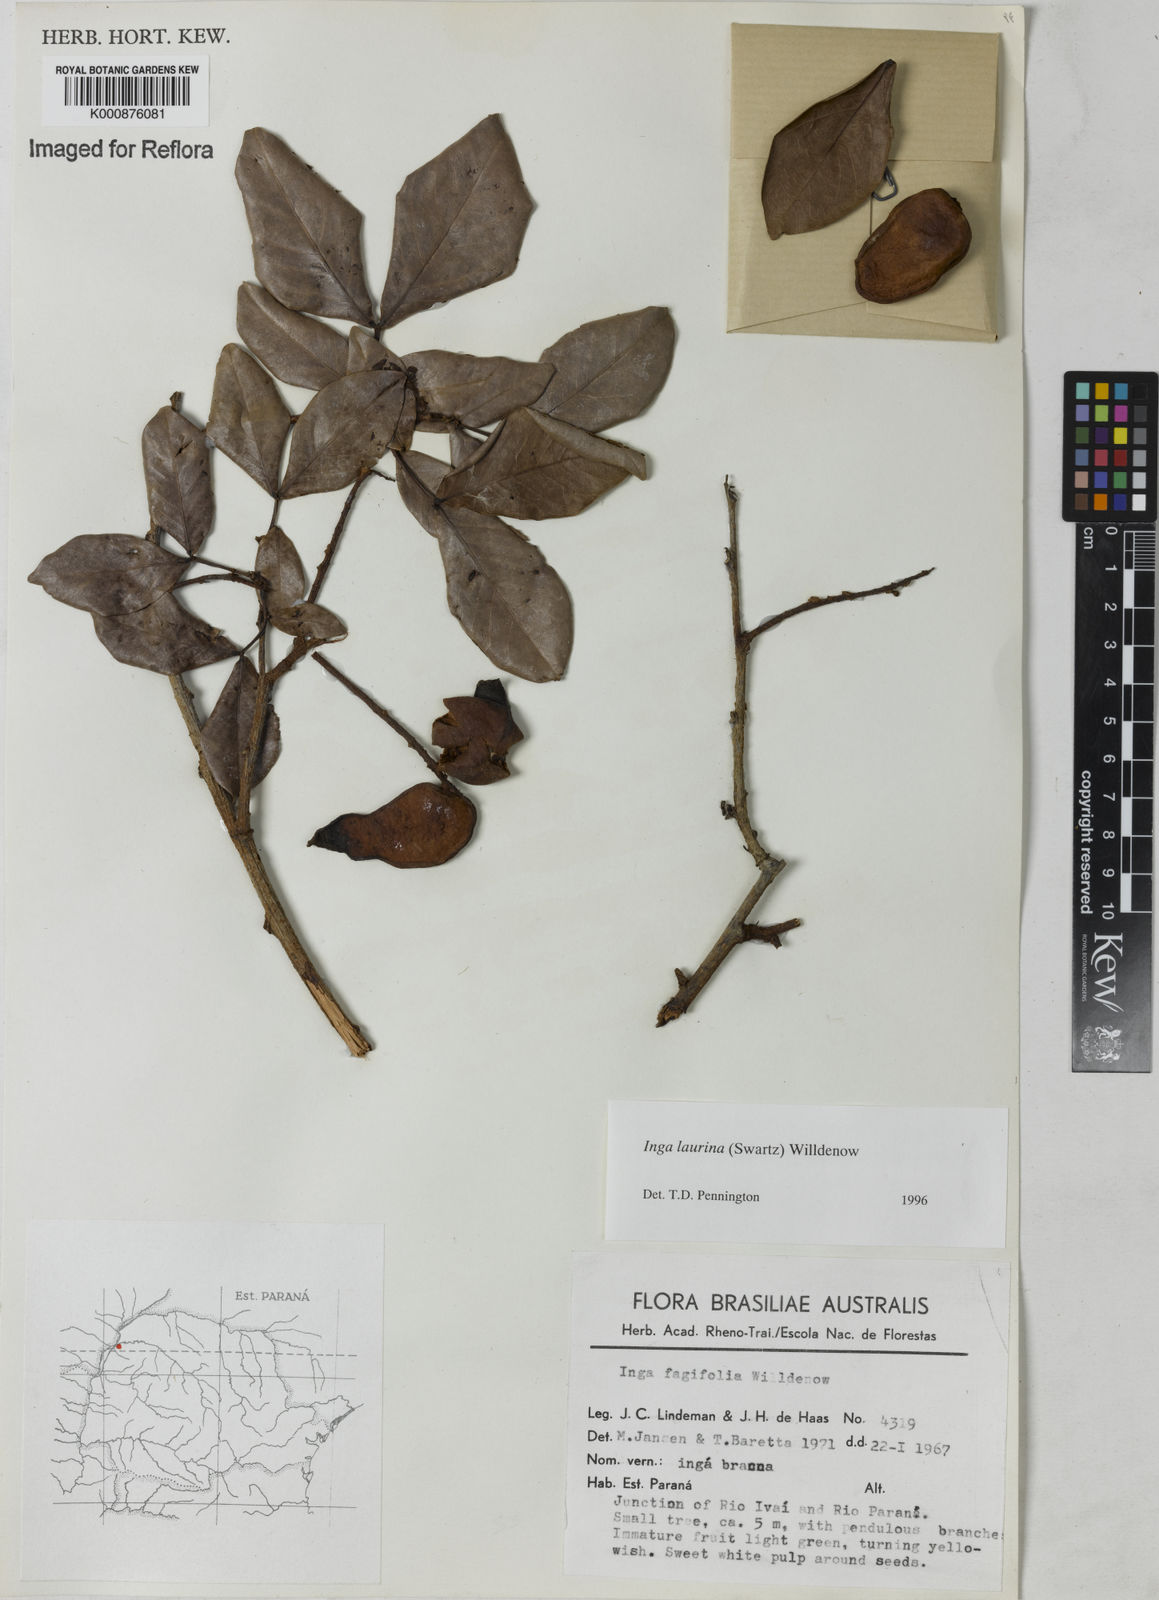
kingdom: Plantae
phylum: Tracheophyta
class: Magnoliopsida
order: Fabales
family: Fabaceae
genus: Inga
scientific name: Inga laurina
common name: Red wood
